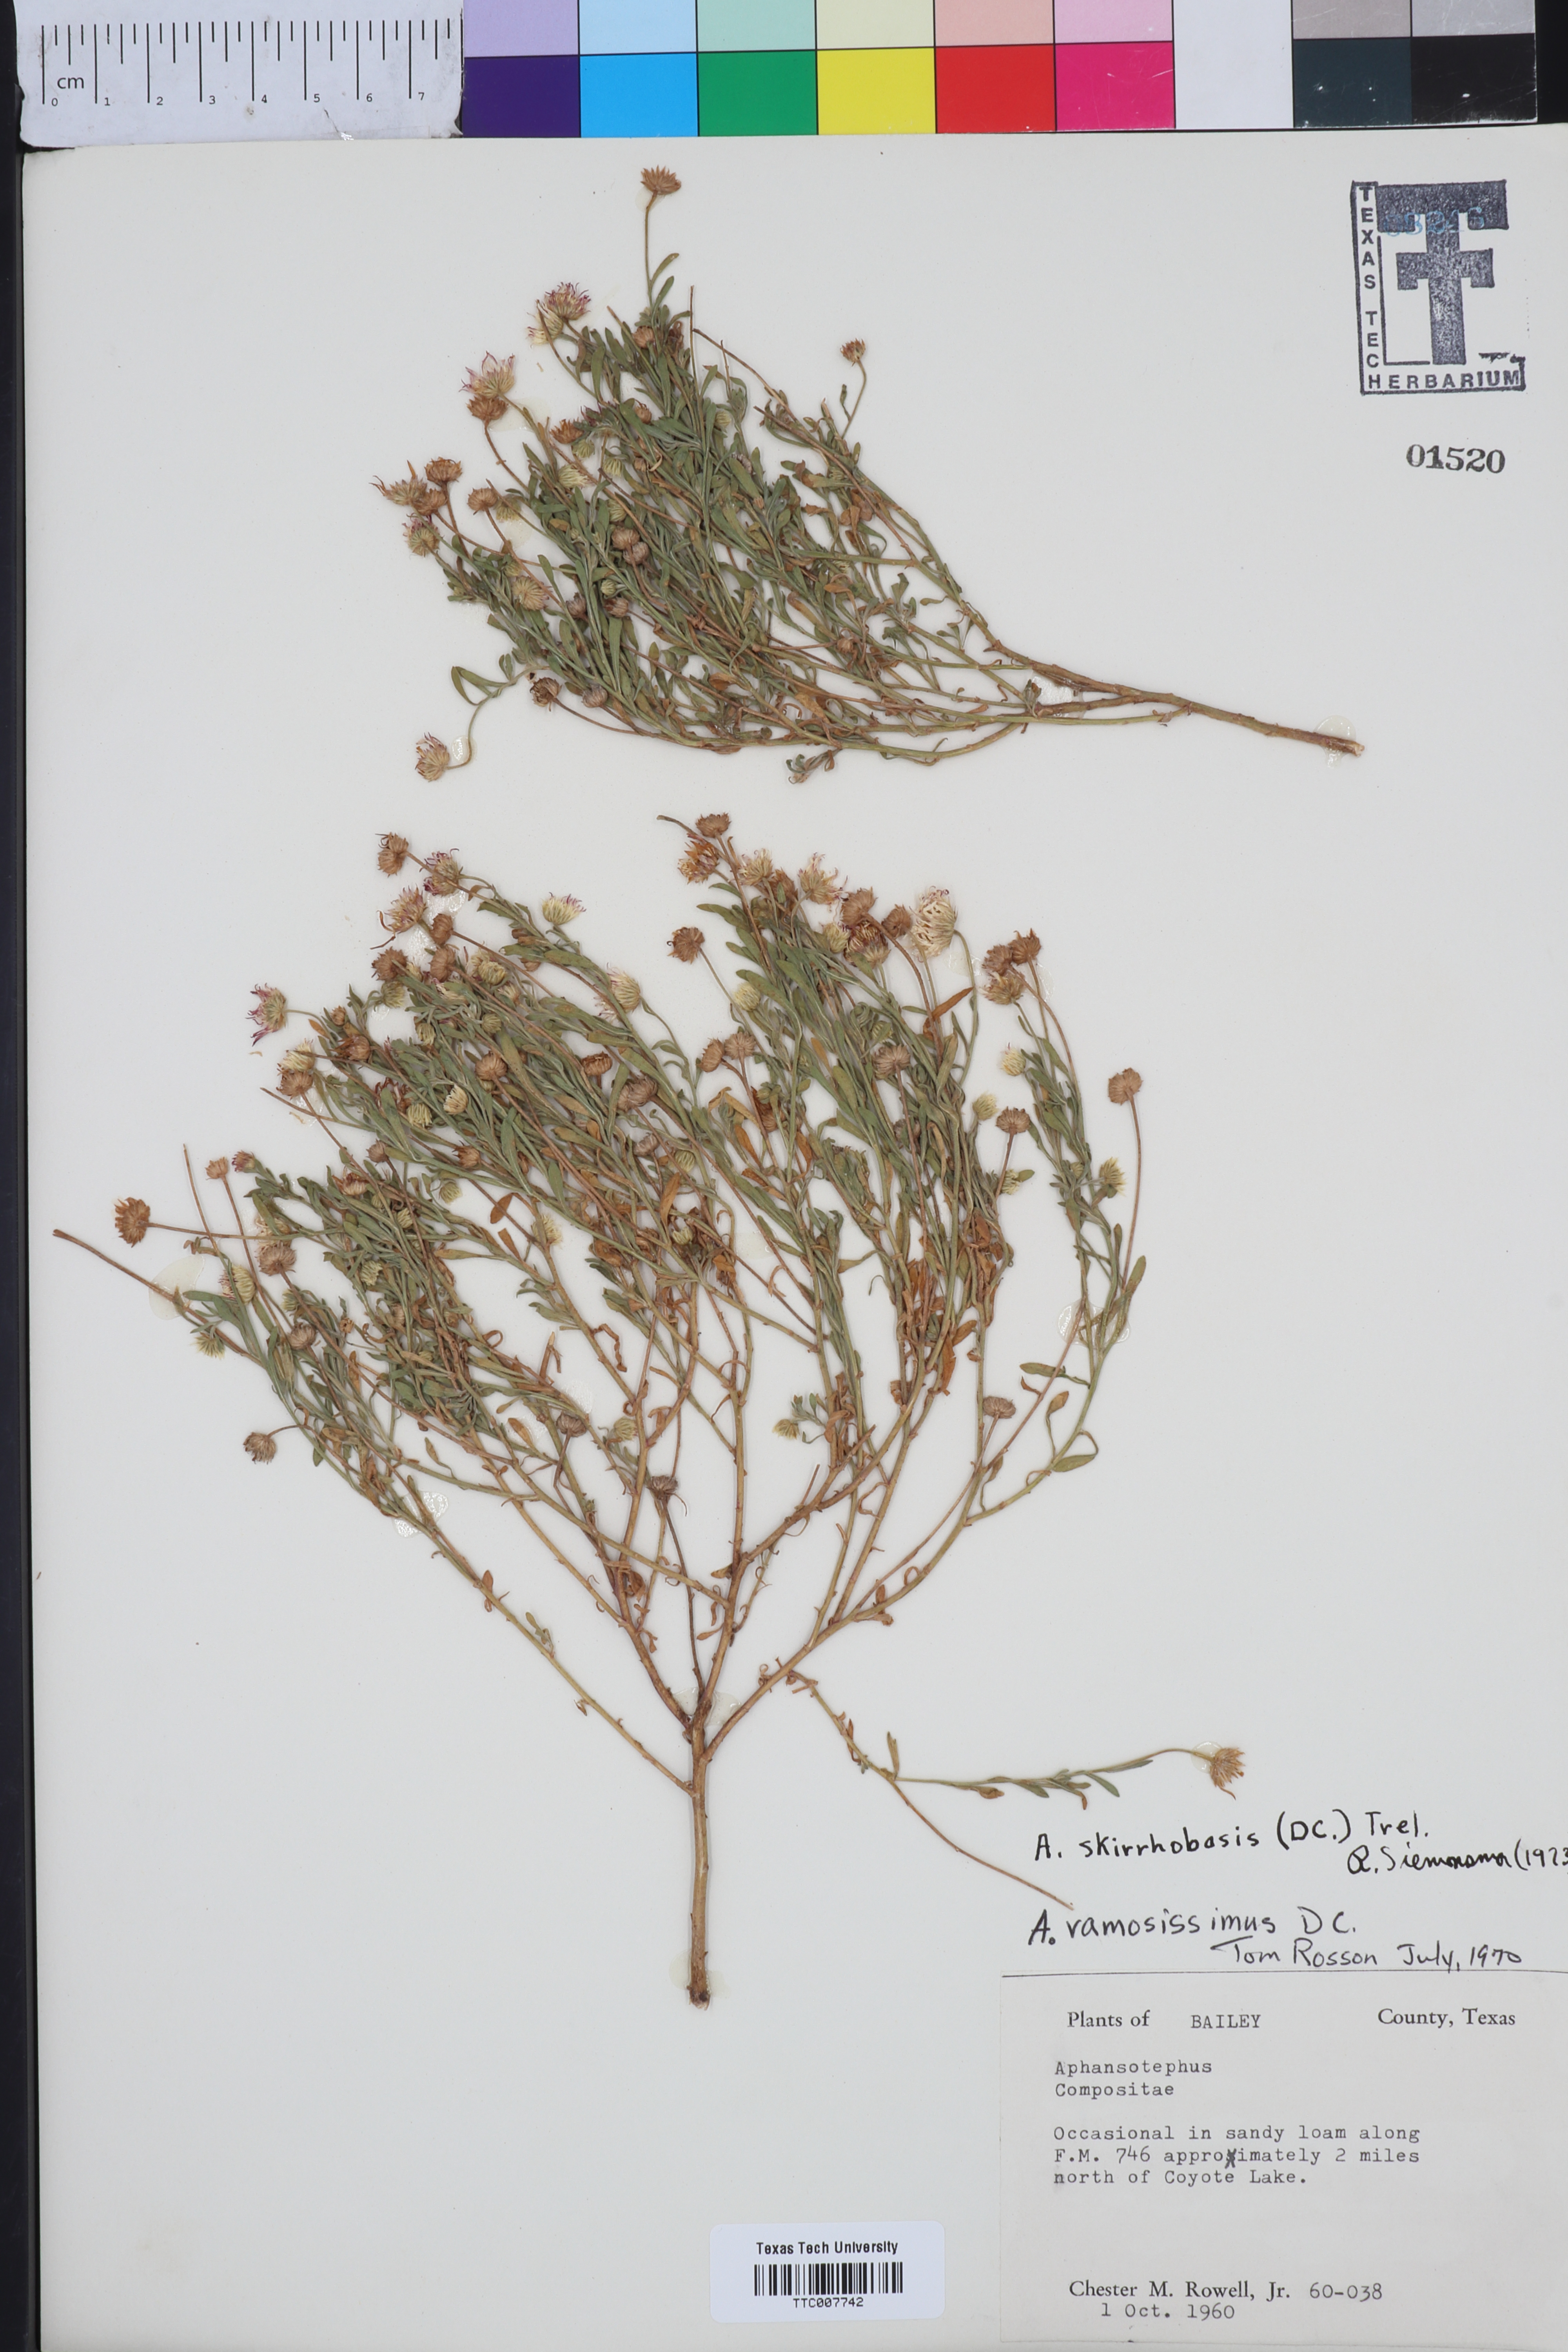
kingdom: Plantae
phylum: Tracheophyta
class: Magnoliopsida
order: Asterales
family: Asteraceae
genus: Aphanostephus
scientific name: Aphanostephus skirrhobasis
